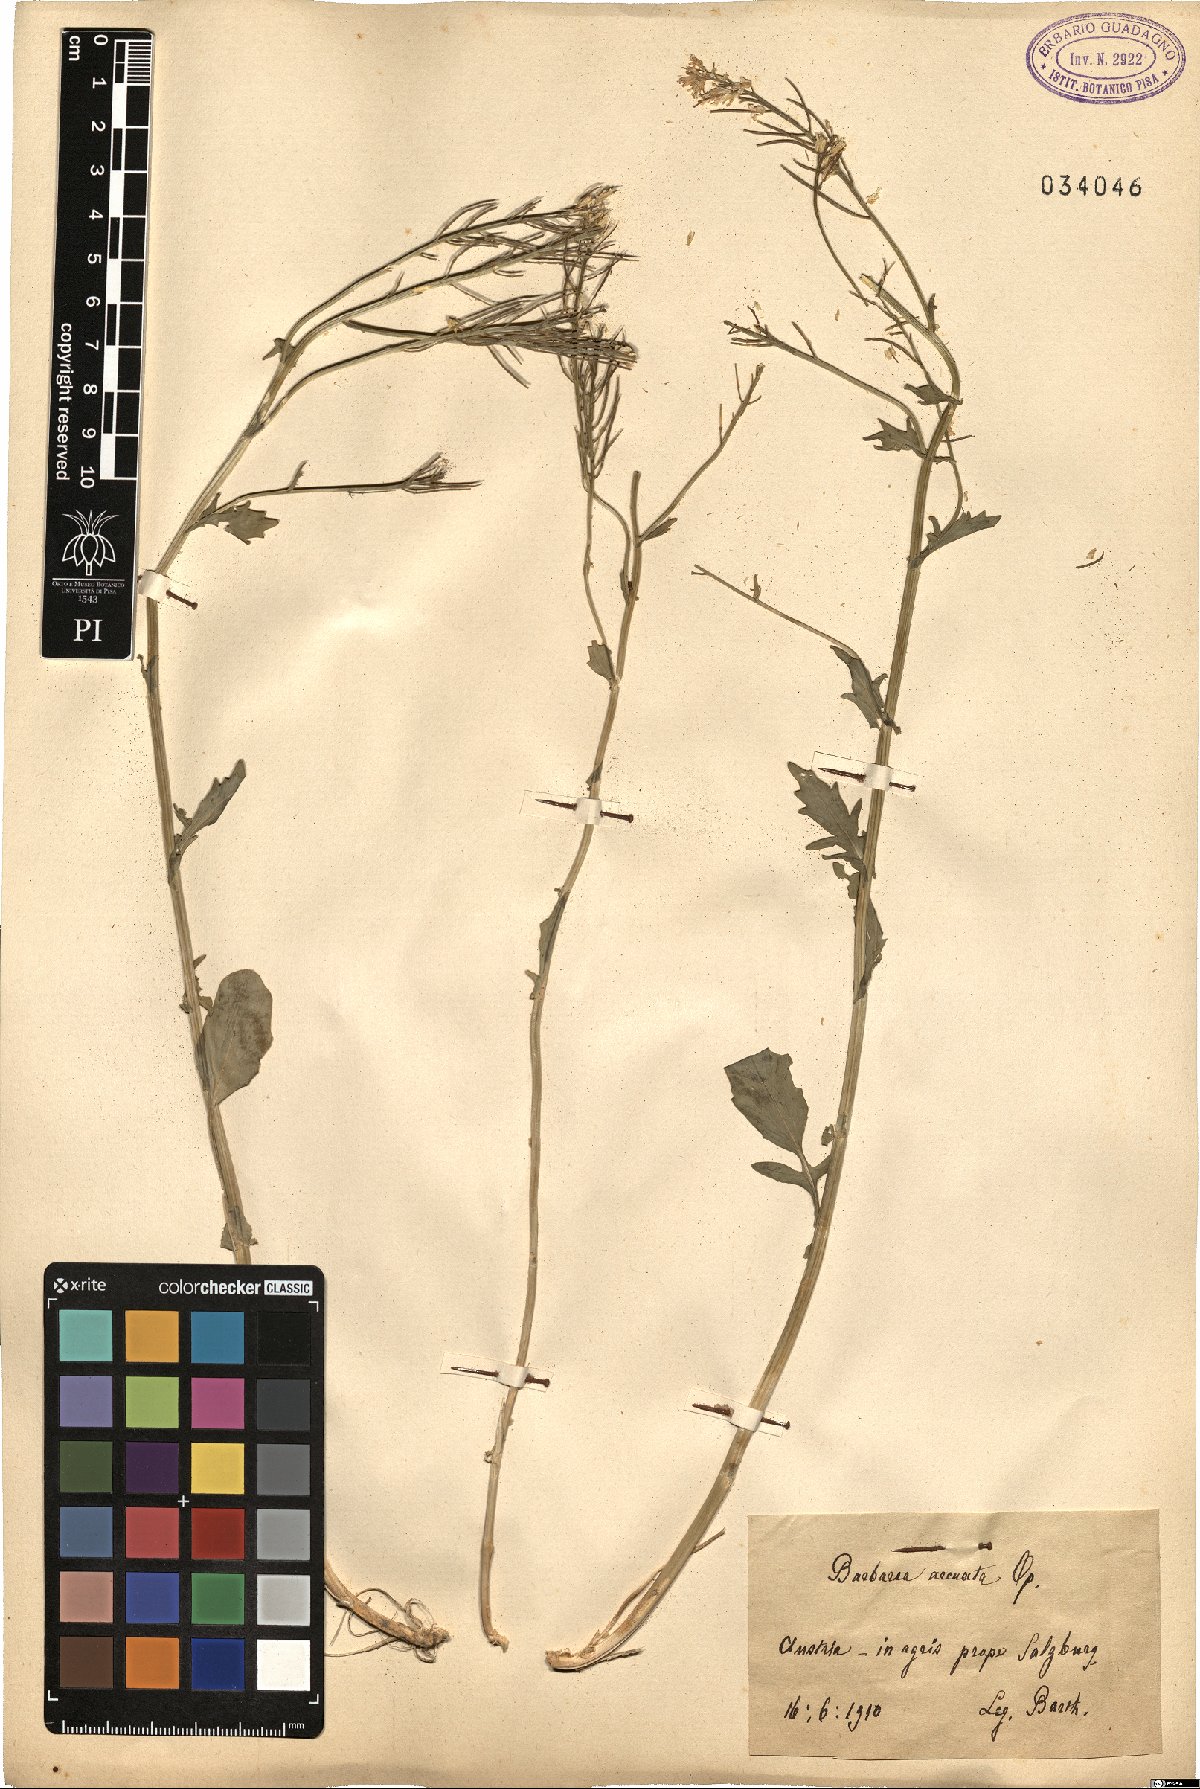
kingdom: Plantae
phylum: Tracheophyta
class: Magnoliopsida
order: Brassicales
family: Brassicaceae
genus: Barbarea
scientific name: Barbarea vulgaris
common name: Cressy-greens
